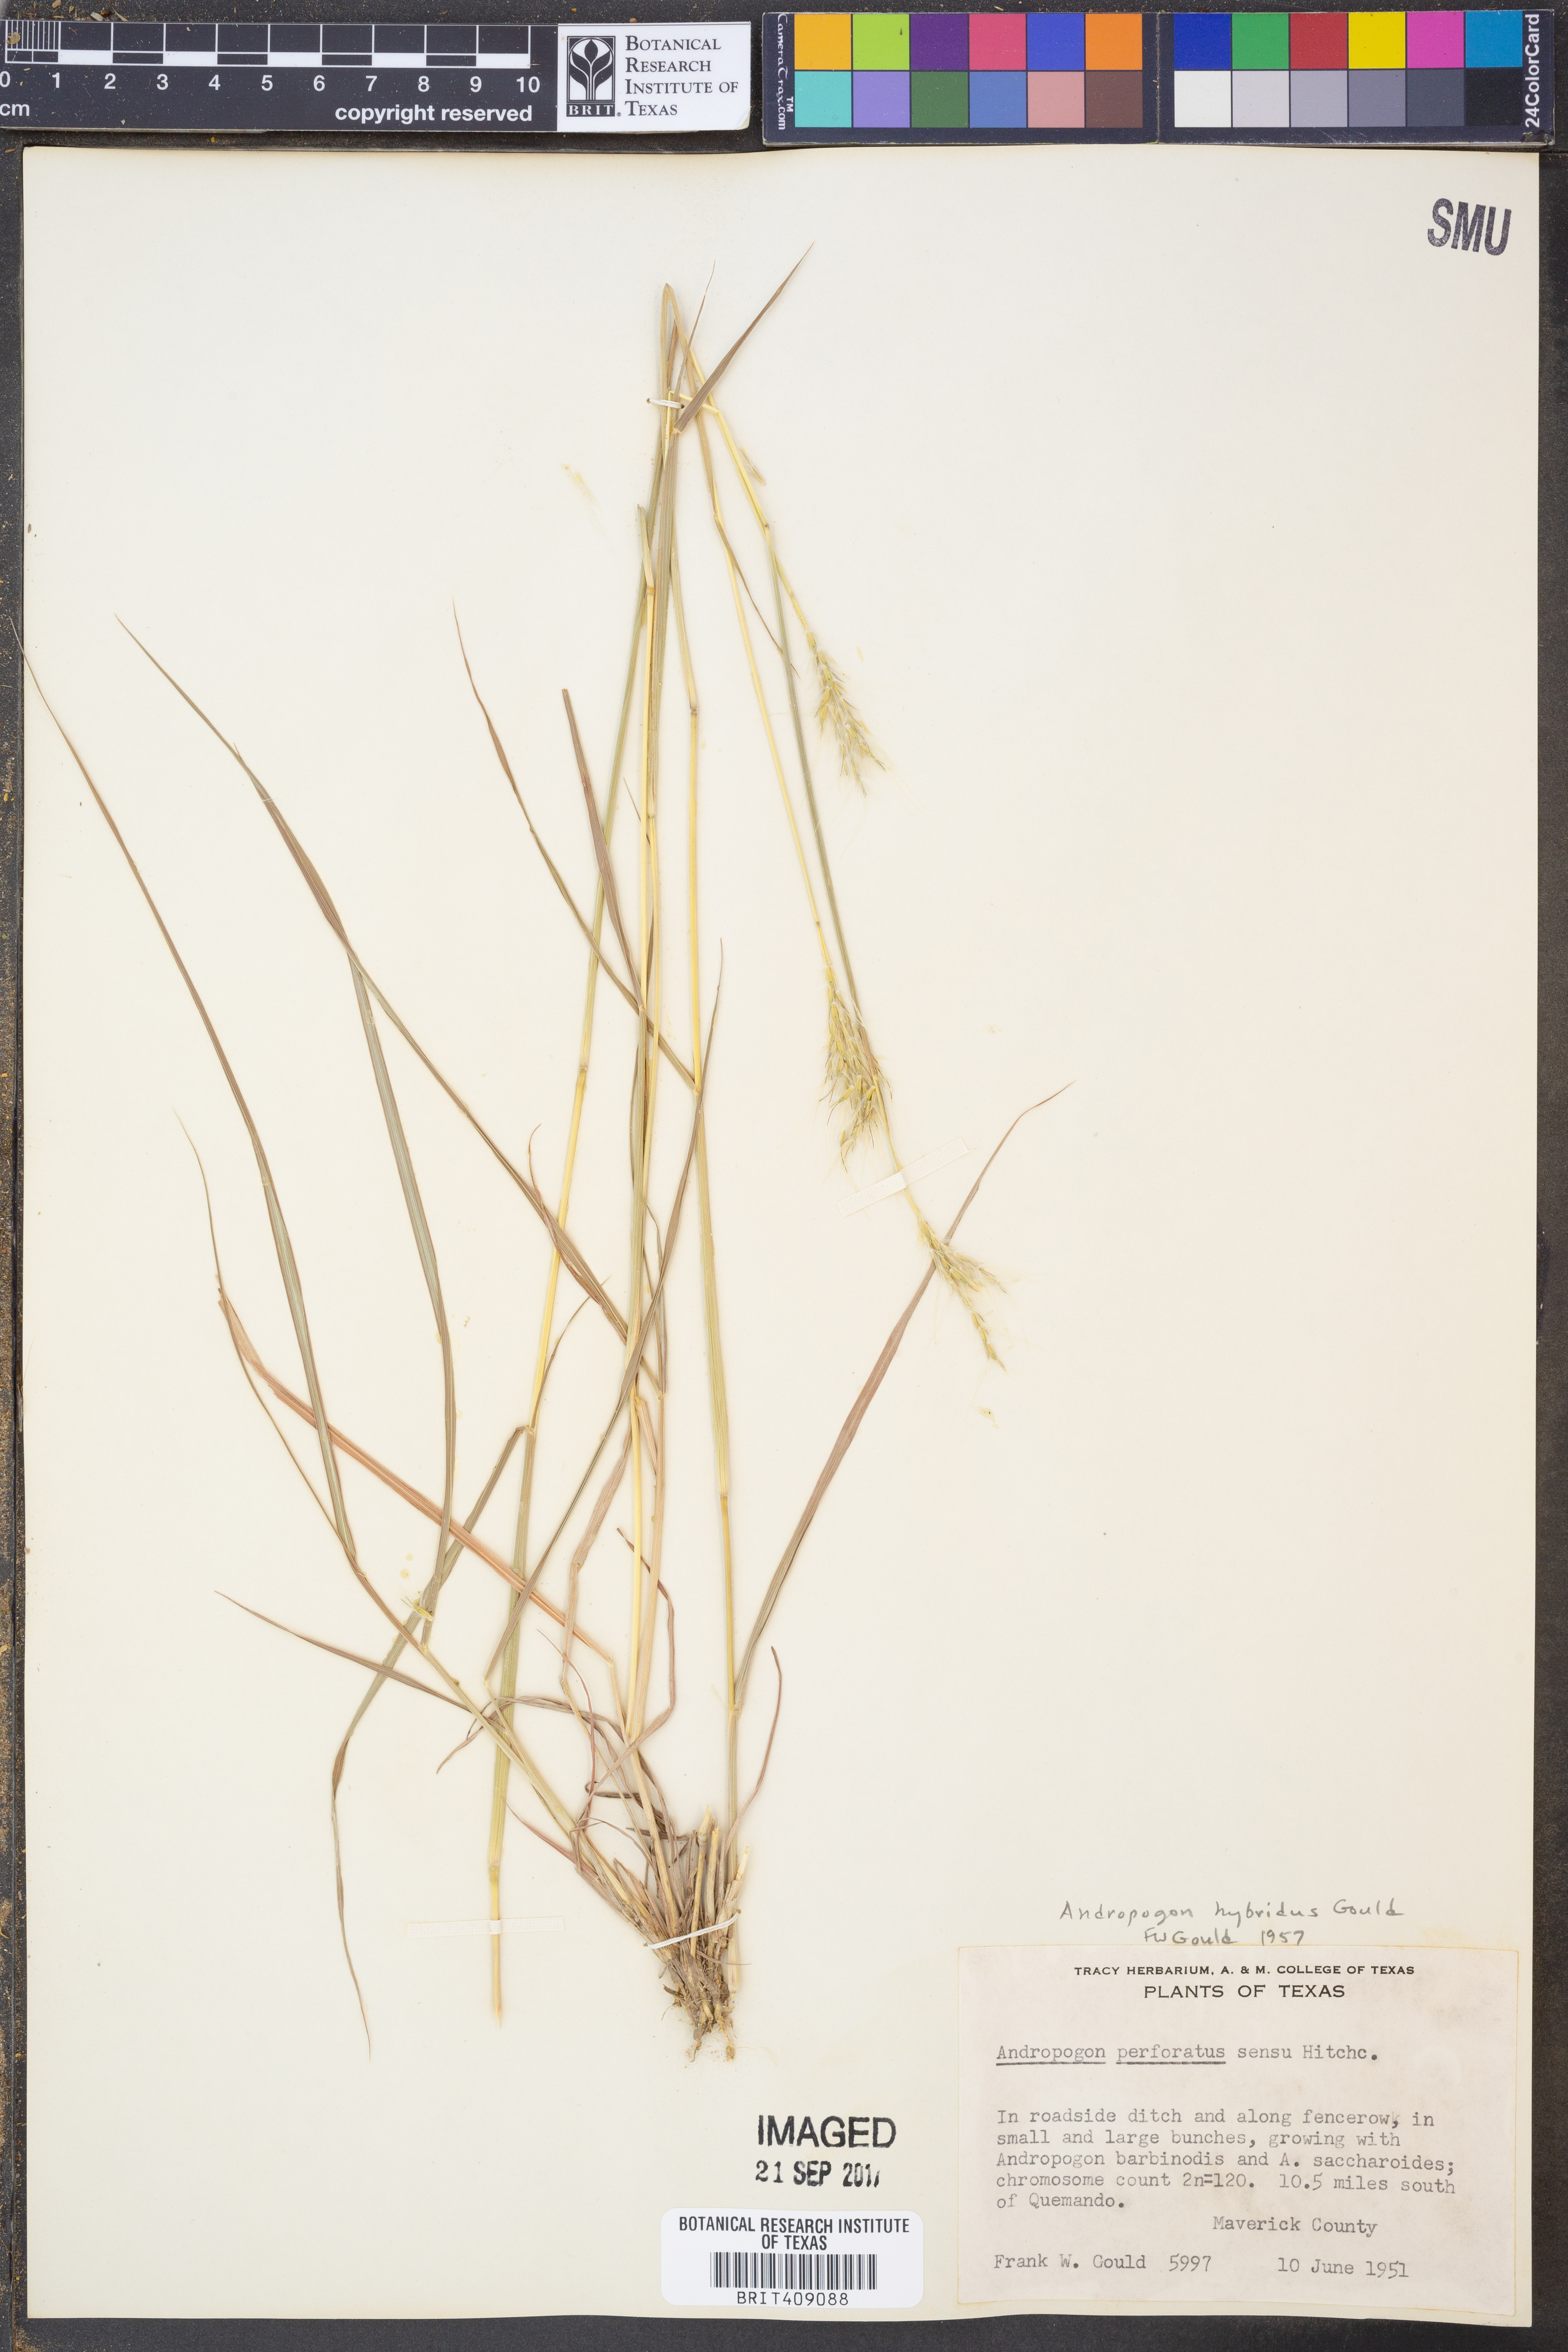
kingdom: Plantae
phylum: Tracheophyta
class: Liliopsida
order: Poales
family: Poaceae
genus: Bothriochloa
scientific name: Bothriochloa hybrida
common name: Hybrid bluestem
